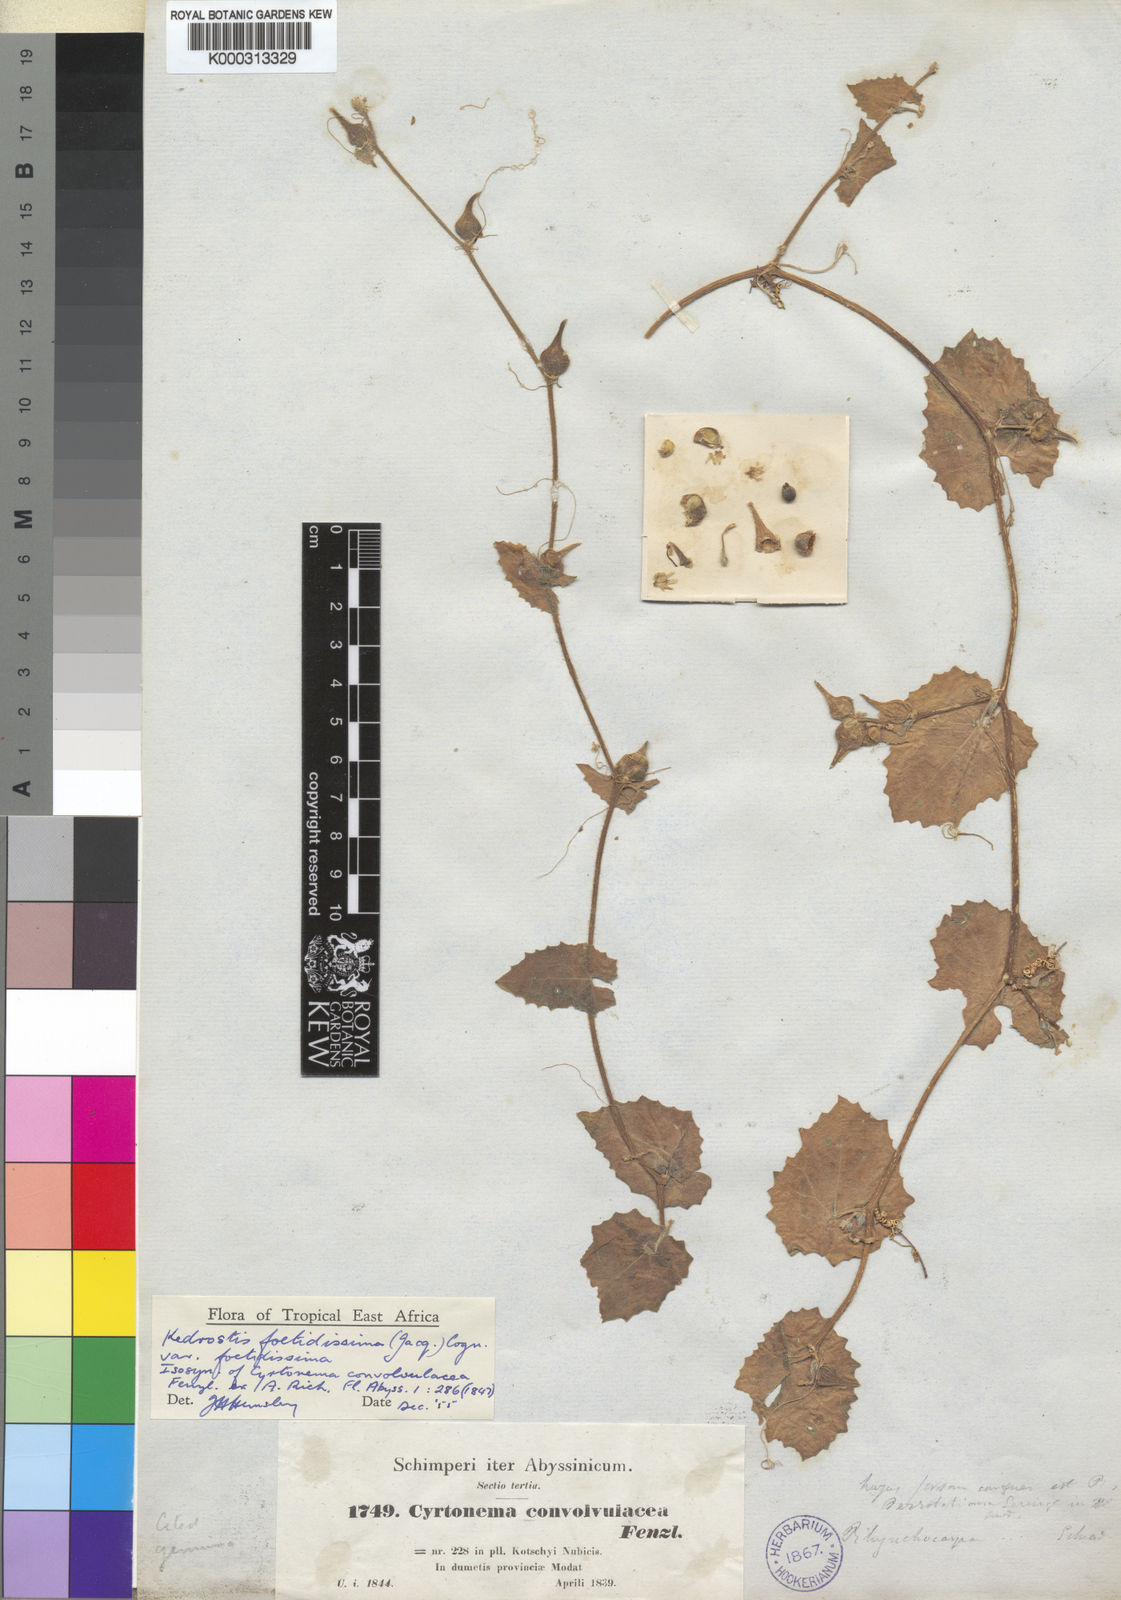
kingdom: Plantae
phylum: Tracheophyta
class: Magnoliopsida
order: Cucurbitales
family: Cucurbitaceae
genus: Kedrostis
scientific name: Kedrostis foetidissima
